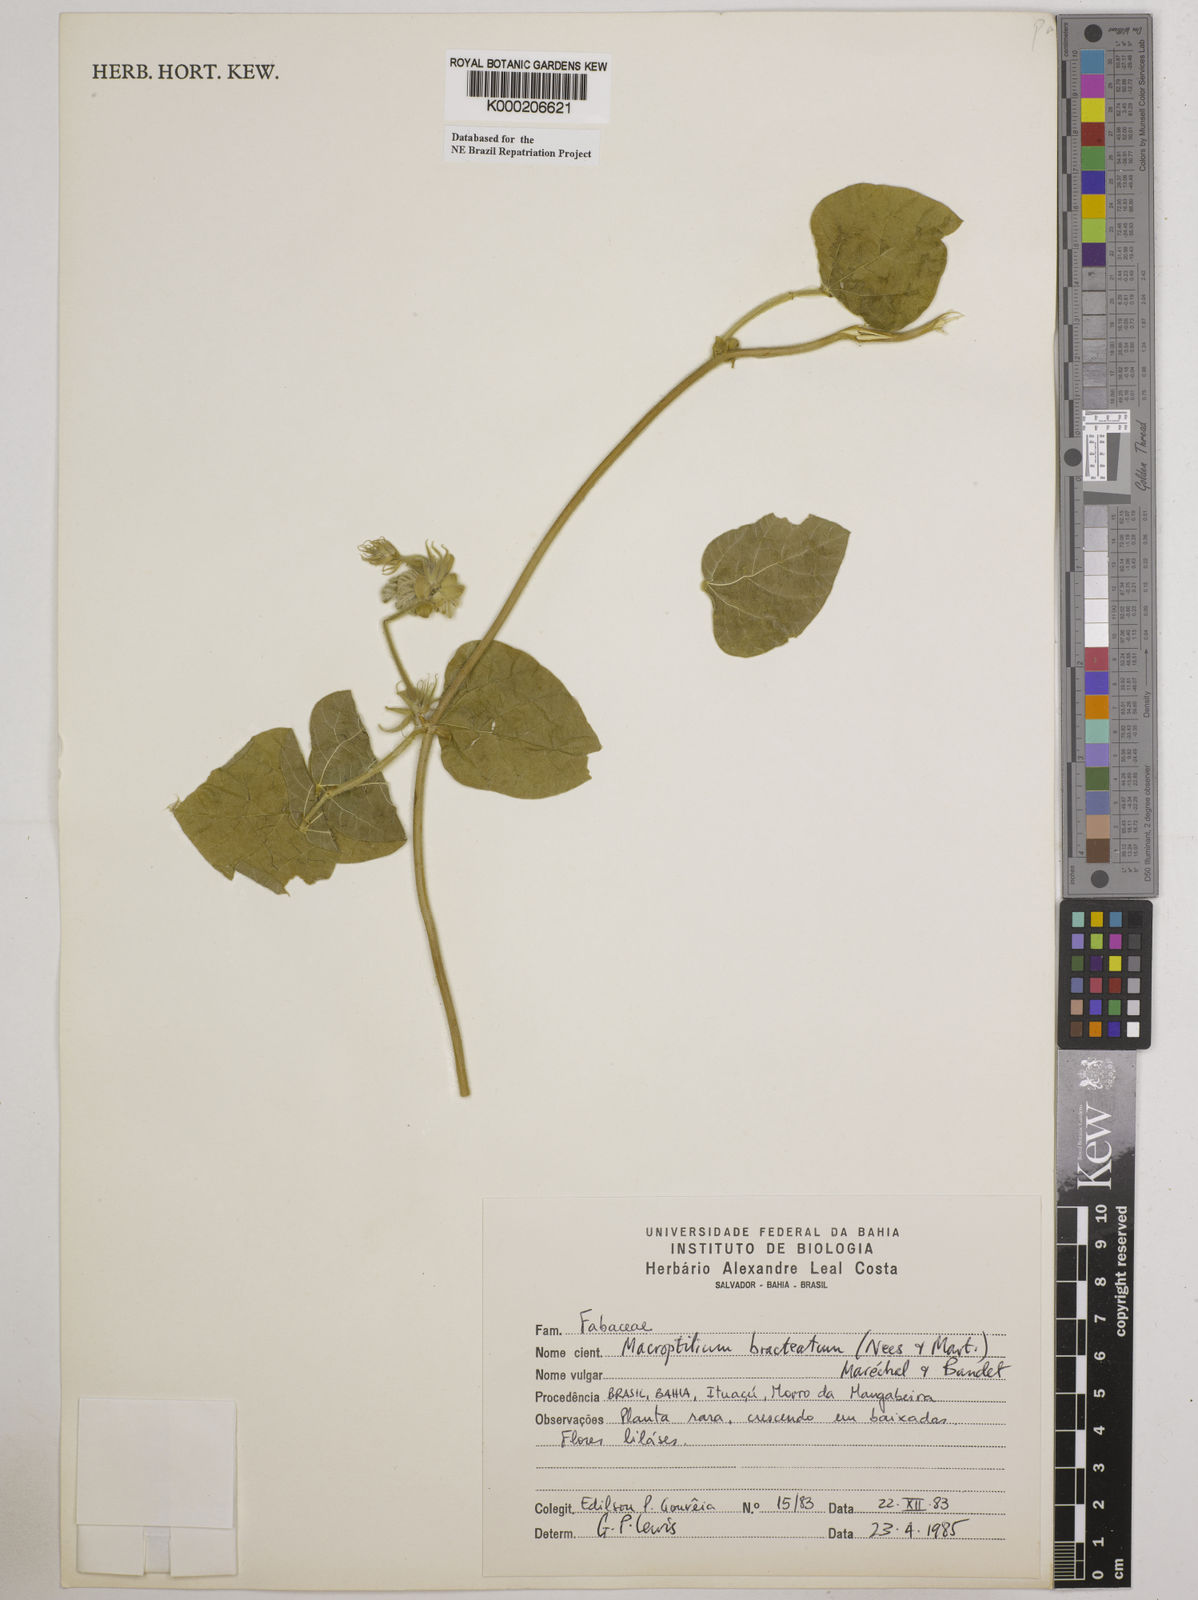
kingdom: Plantae
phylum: Tracheophyta
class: Magnoliopsida
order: Fabales
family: Fabaceae
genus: Macroptilium
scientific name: Macroptilium
